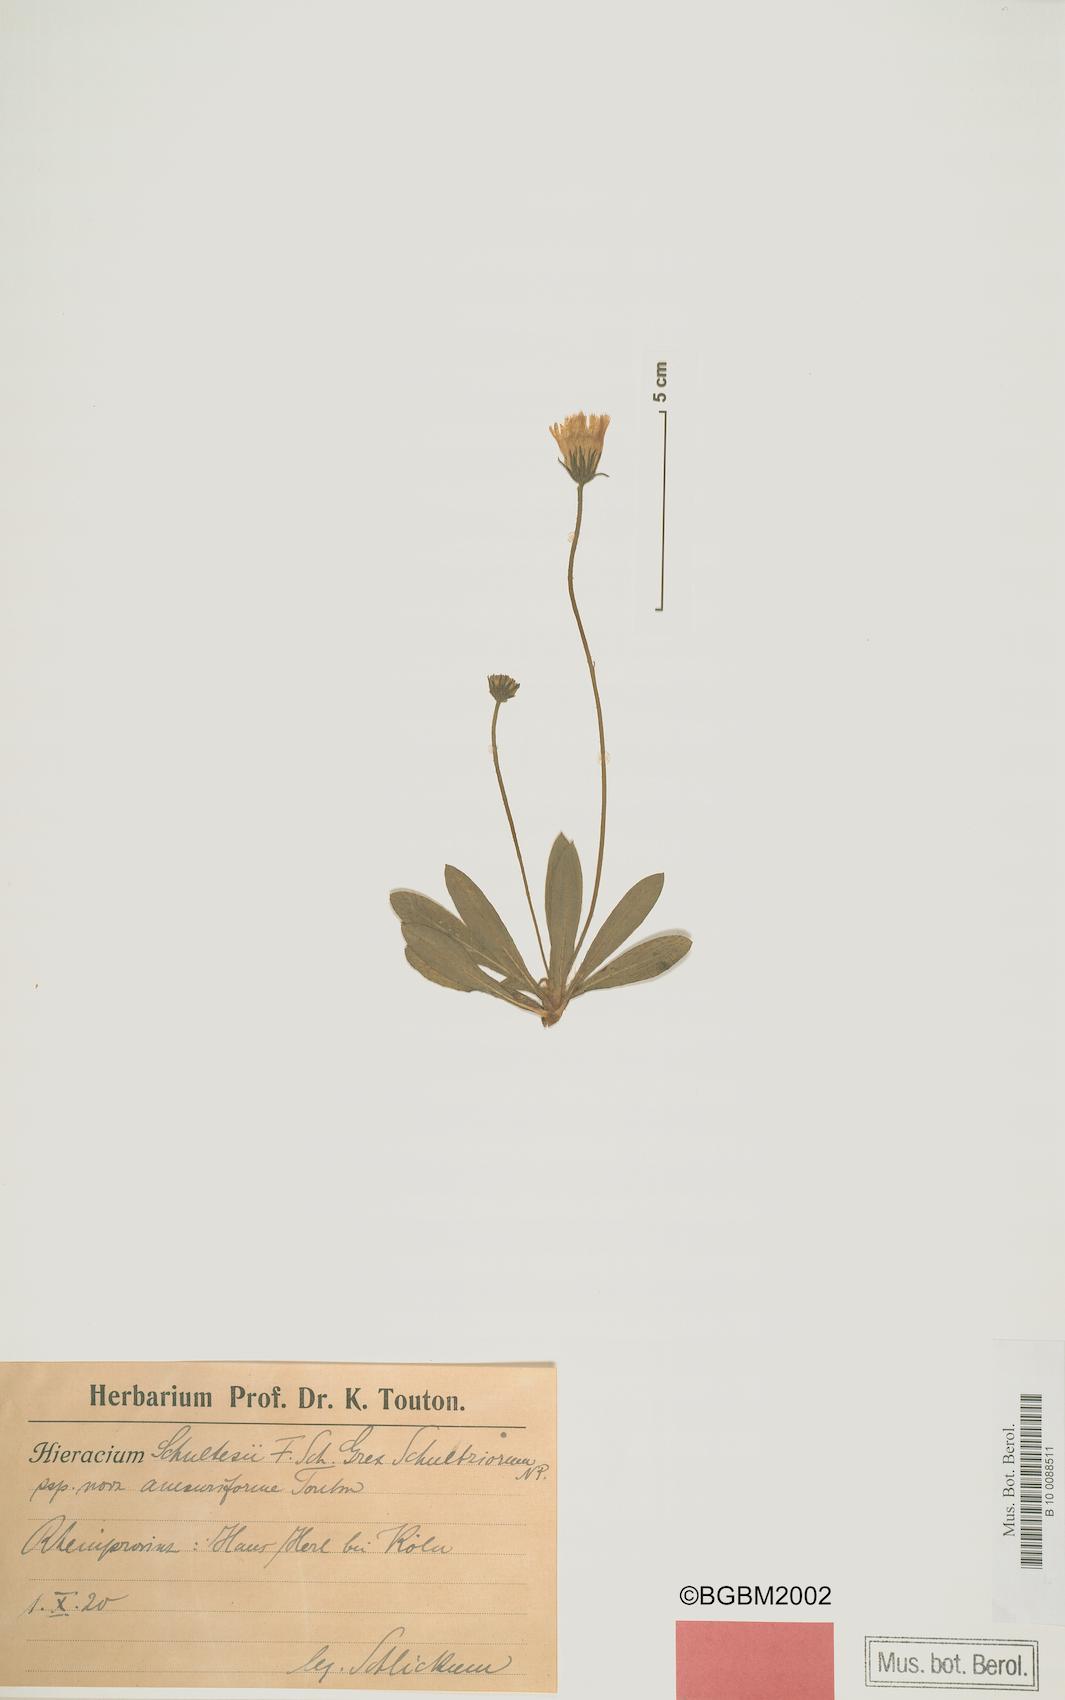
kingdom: Plantae
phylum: Tracheophyta
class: Magnoliopsida
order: Asterales
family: Asteraceae
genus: Pilosella
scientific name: Pilosella schultesii
